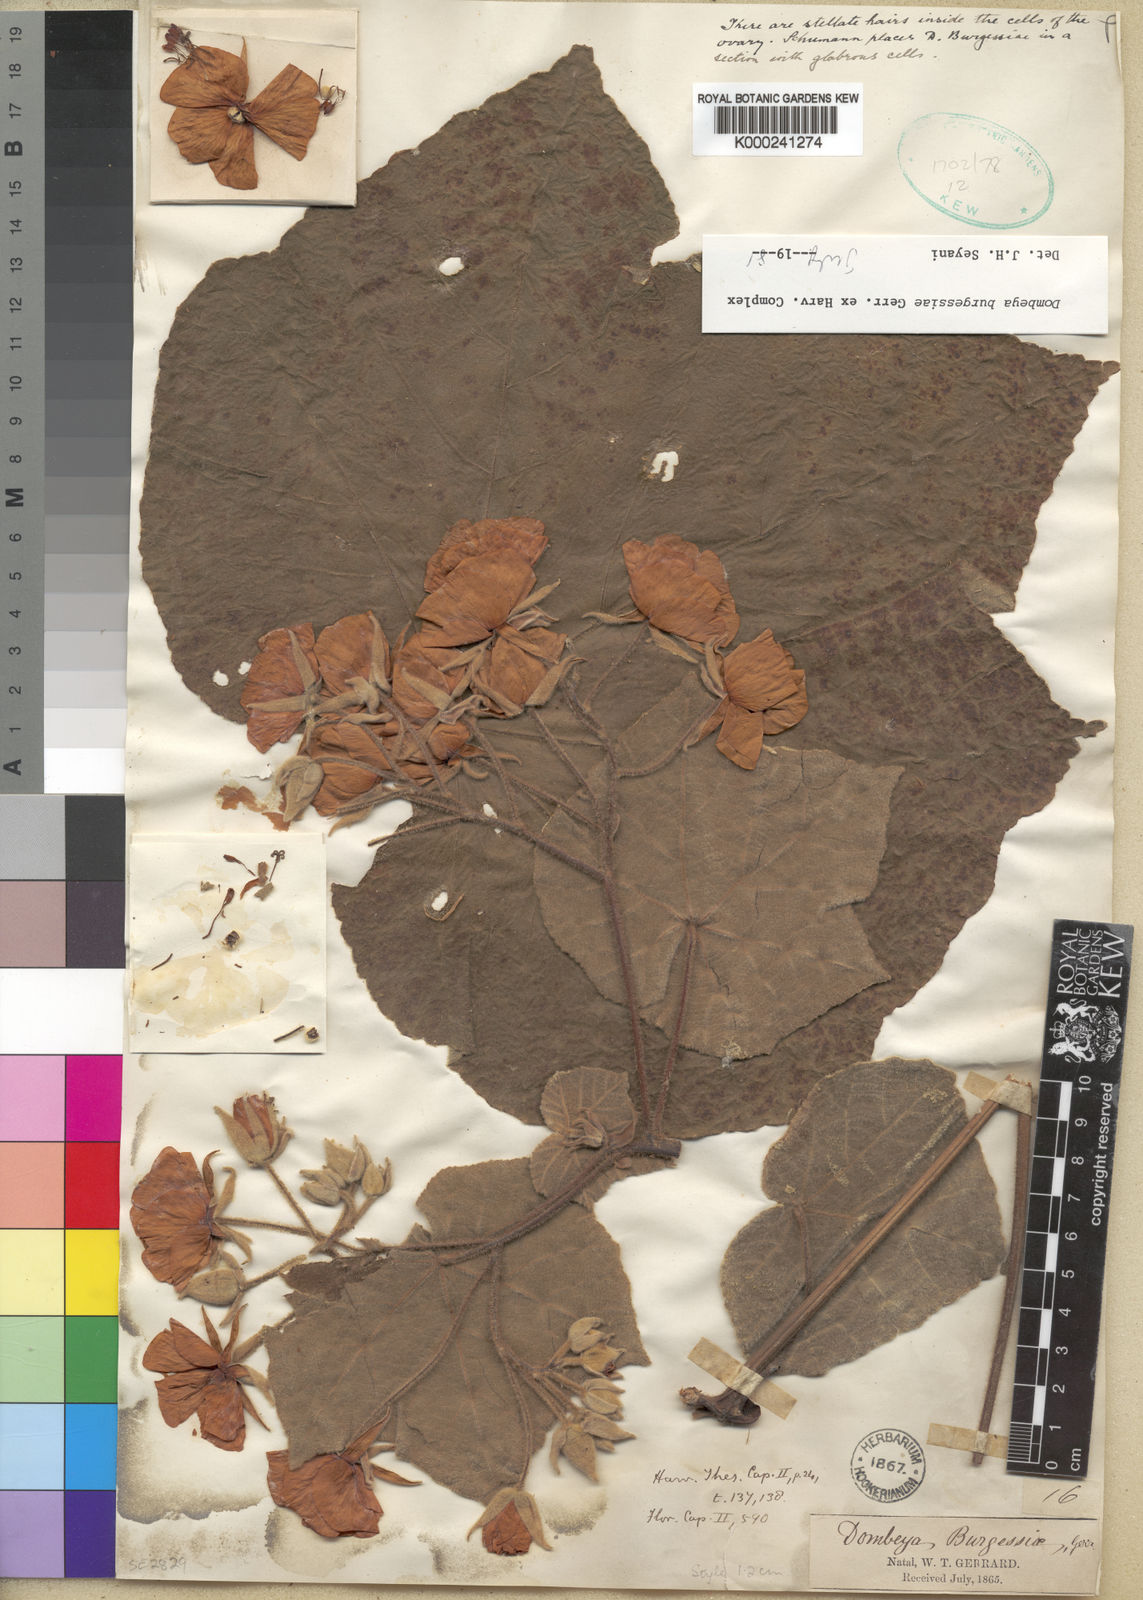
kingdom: Plantae
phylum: Tracheophyta
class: Magnoliopsida
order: Malvales
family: Malvaceae
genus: Dombeya
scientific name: Dombeya burgessiae
